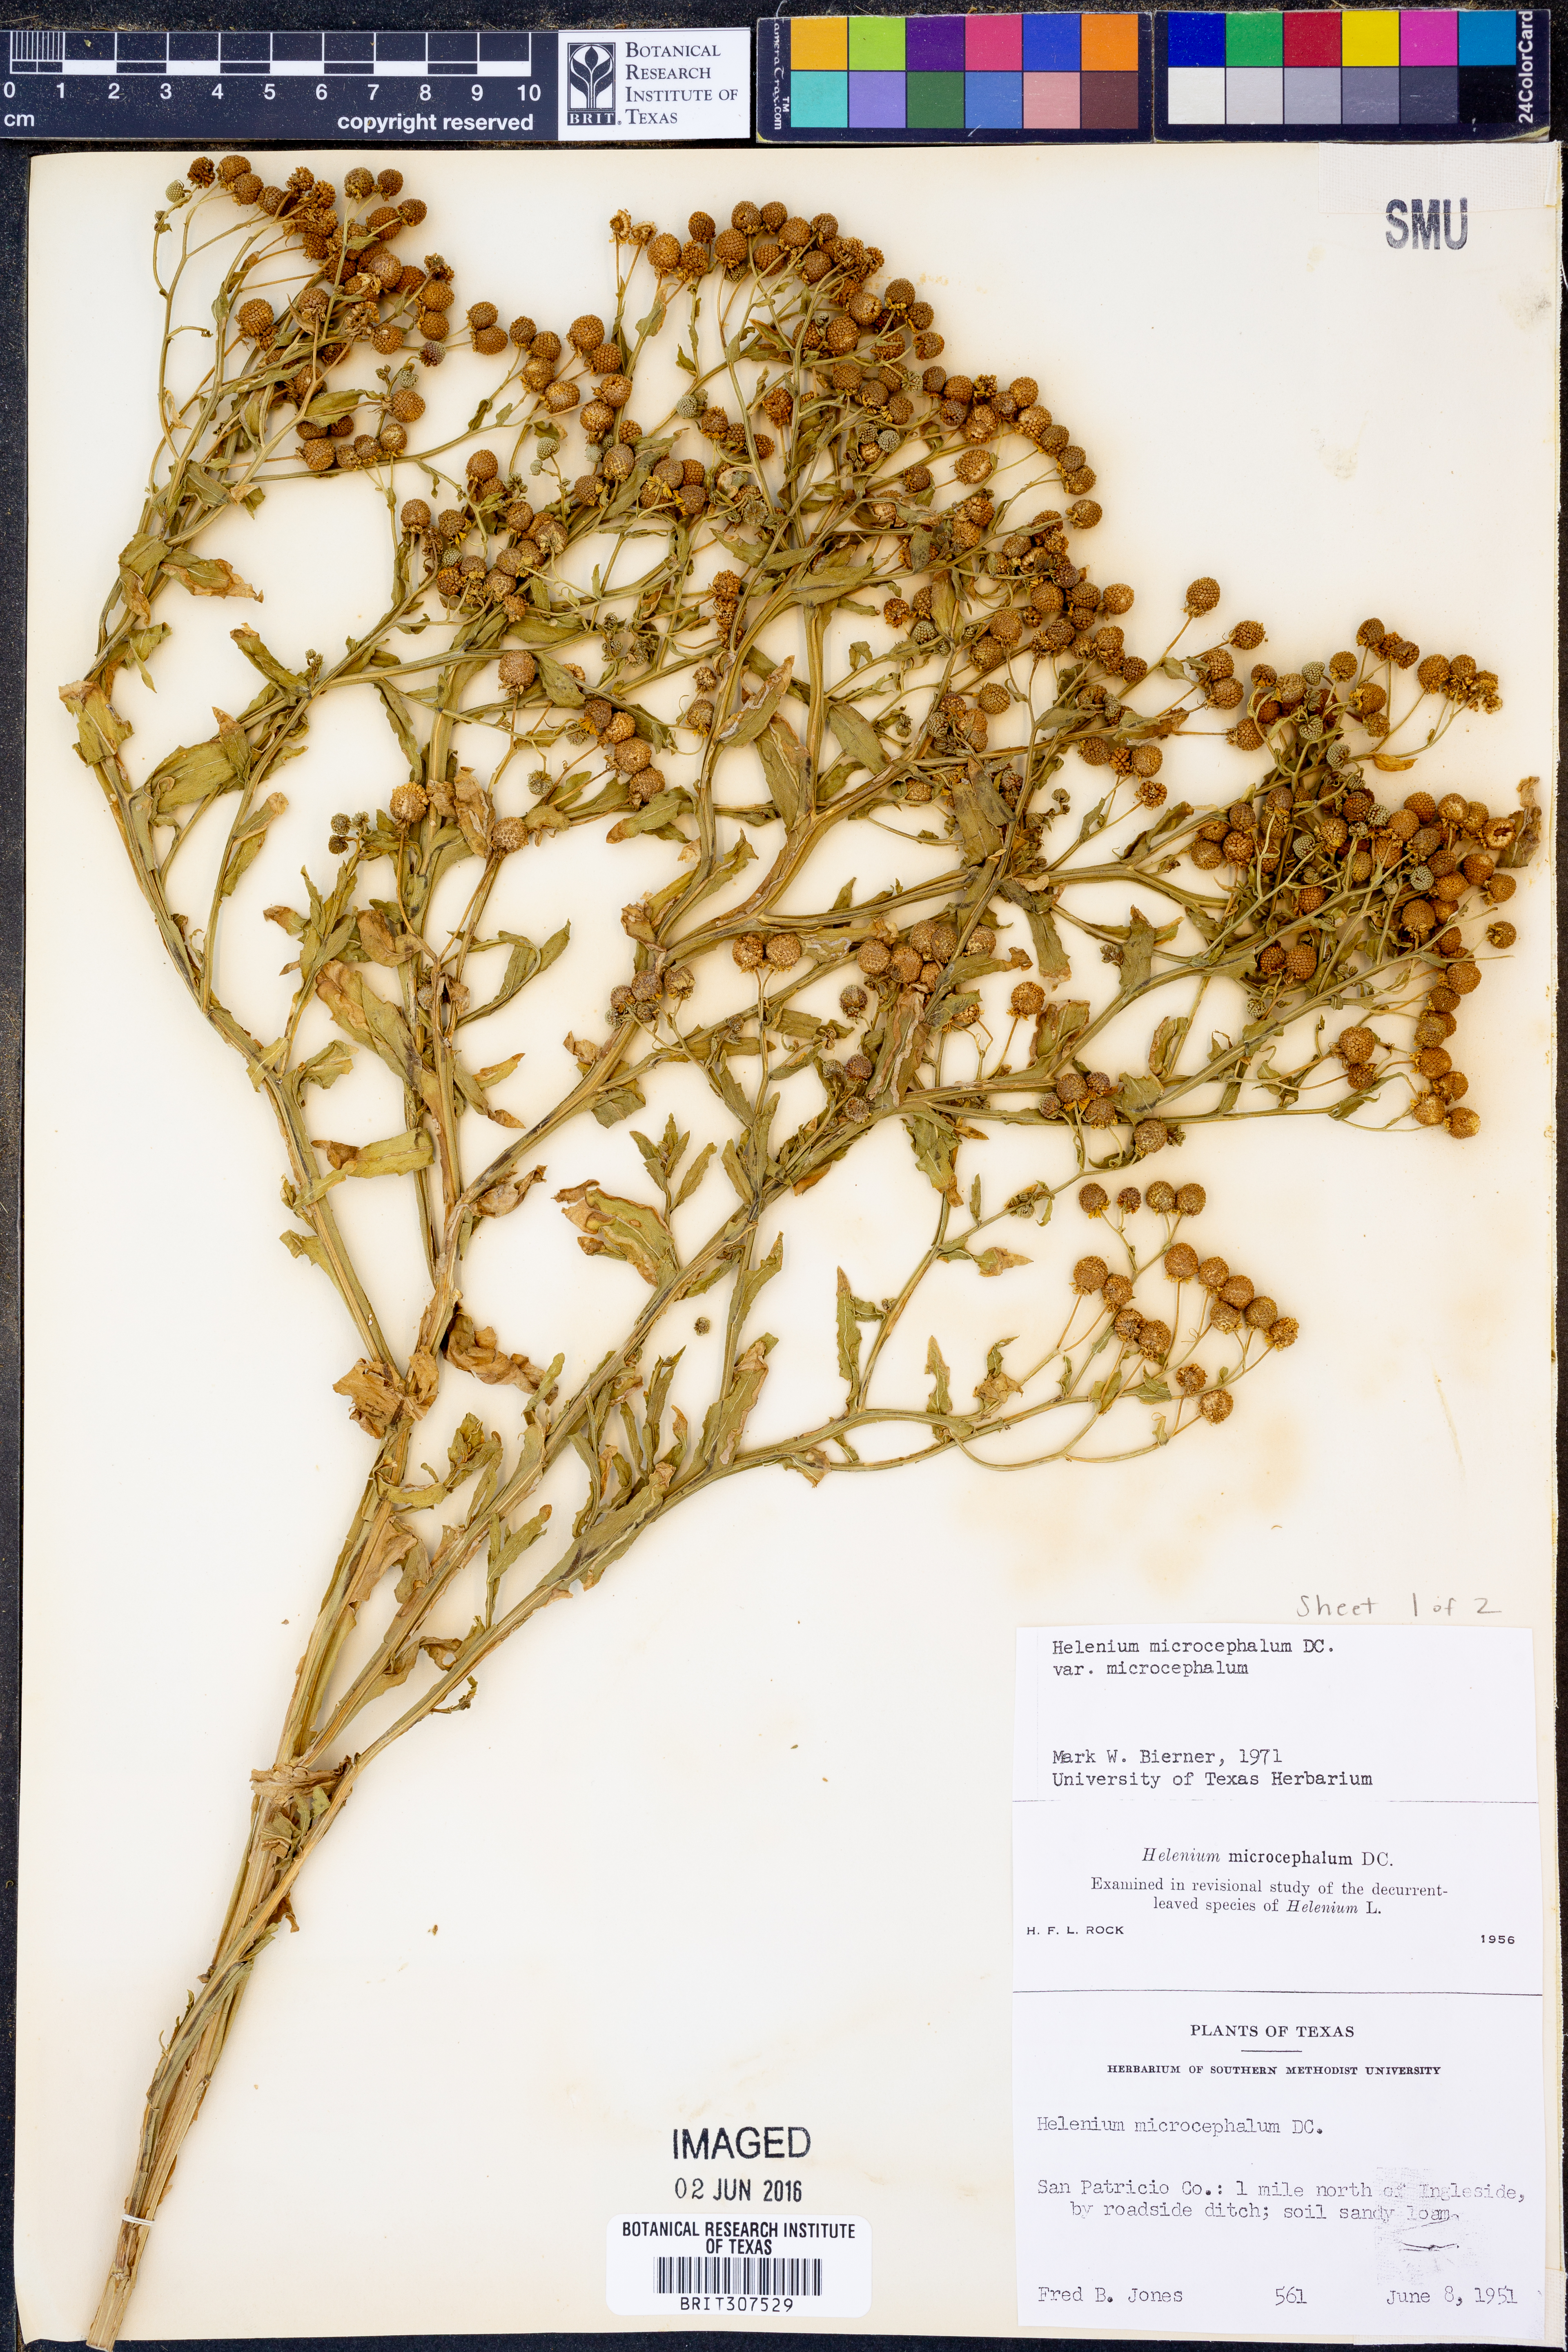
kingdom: Plantae
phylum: Tracheophyta
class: Magnoliopsida
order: Asterales
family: Asteraceae
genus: Helenium
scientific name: Helenium microcephalum
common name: Smallhead sneezeweed
